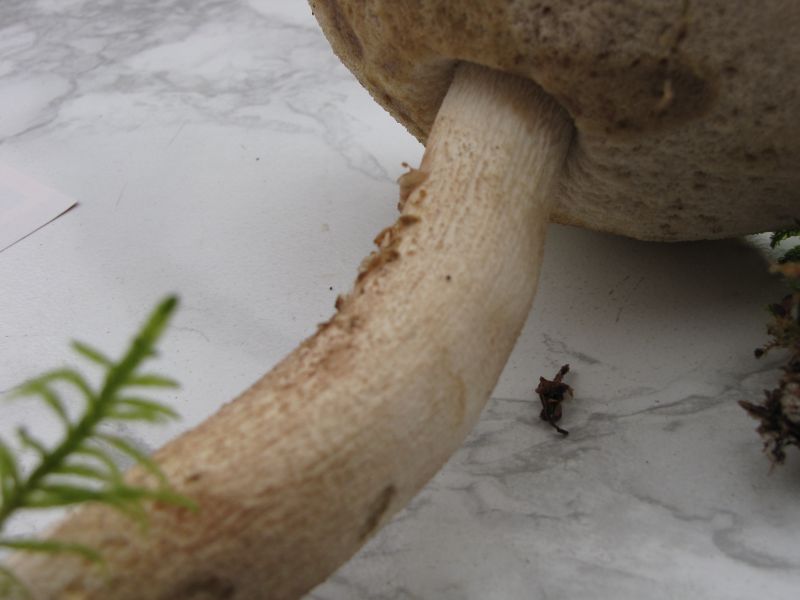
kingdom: Fungi
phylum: Basidiomycota
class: Agaricomycetes
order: Boletales
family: Boletaceae
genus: Leccinum
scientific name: Leccinum scabrum
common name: hvid skælrørhat
